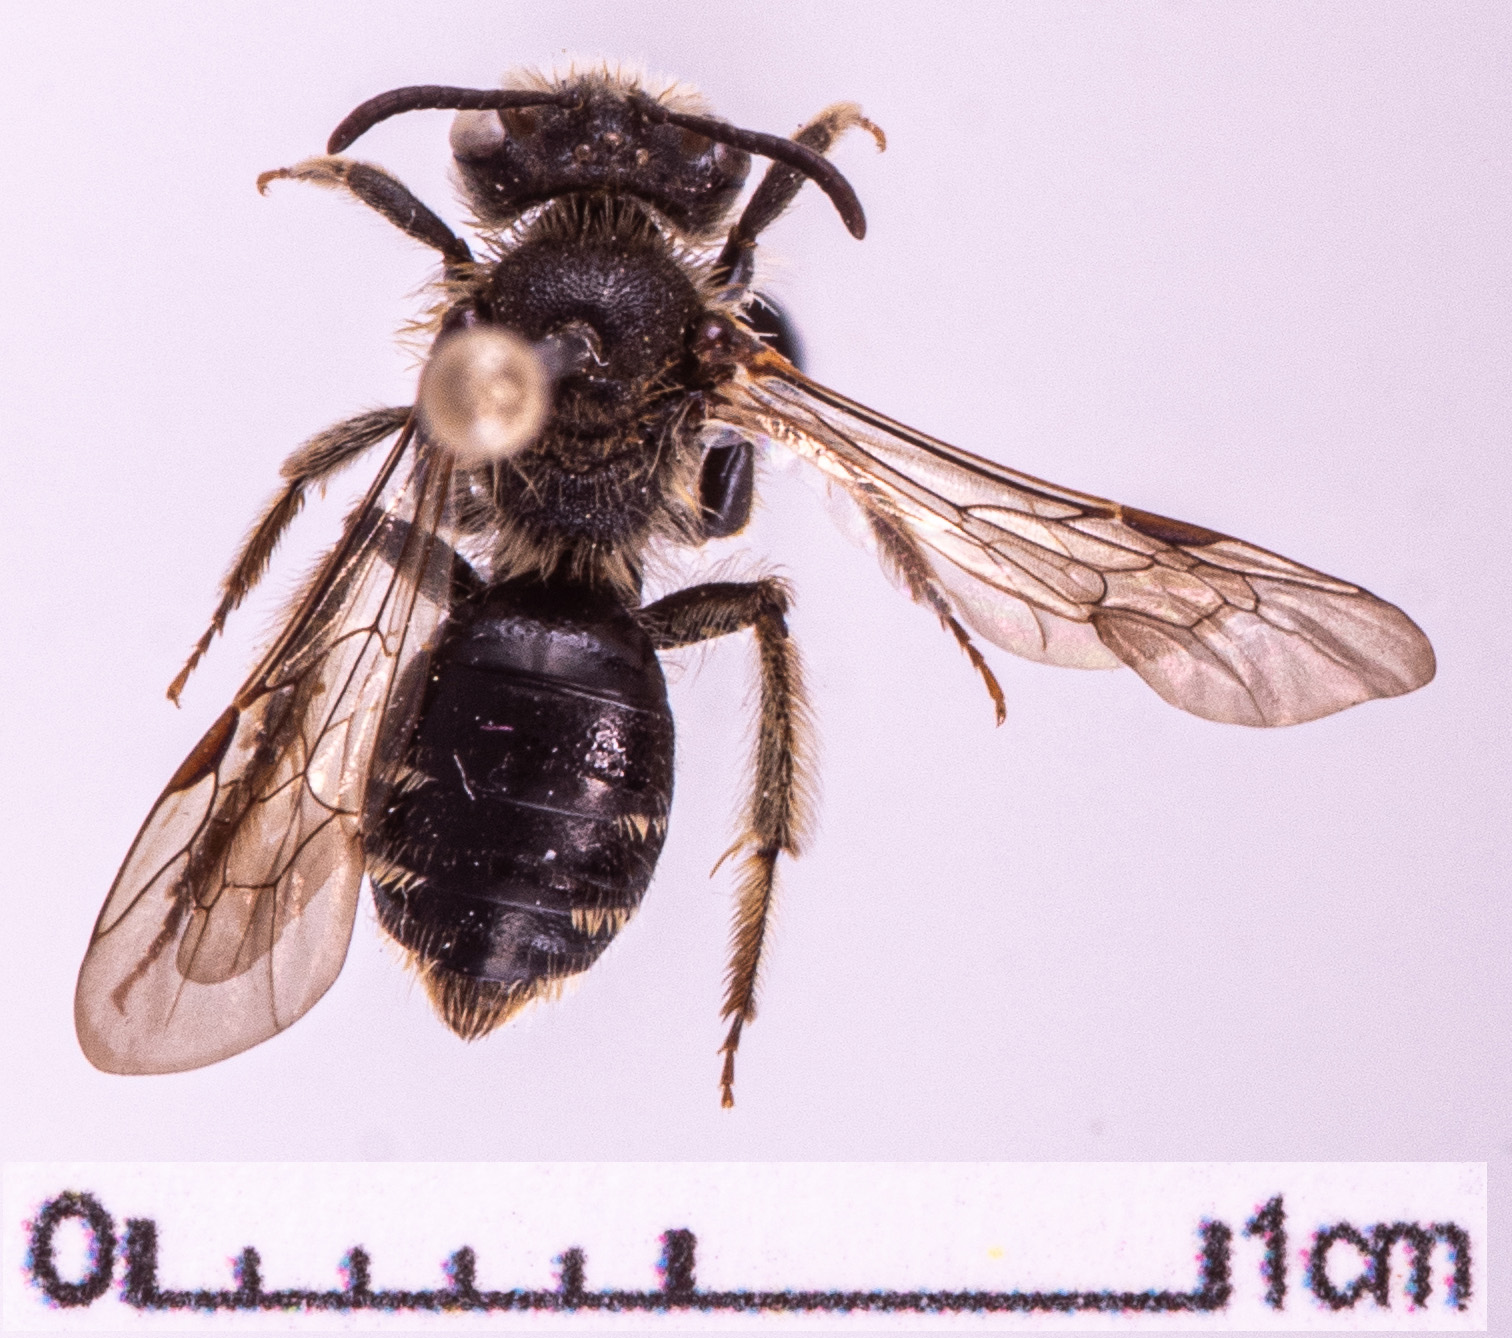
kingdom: Animalia
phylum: Arthropoda
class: Insecta
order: Hymenoptera
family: Andrenidae
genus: Andrena
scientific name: Andrena proxima
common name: Broad-faced mining bee
